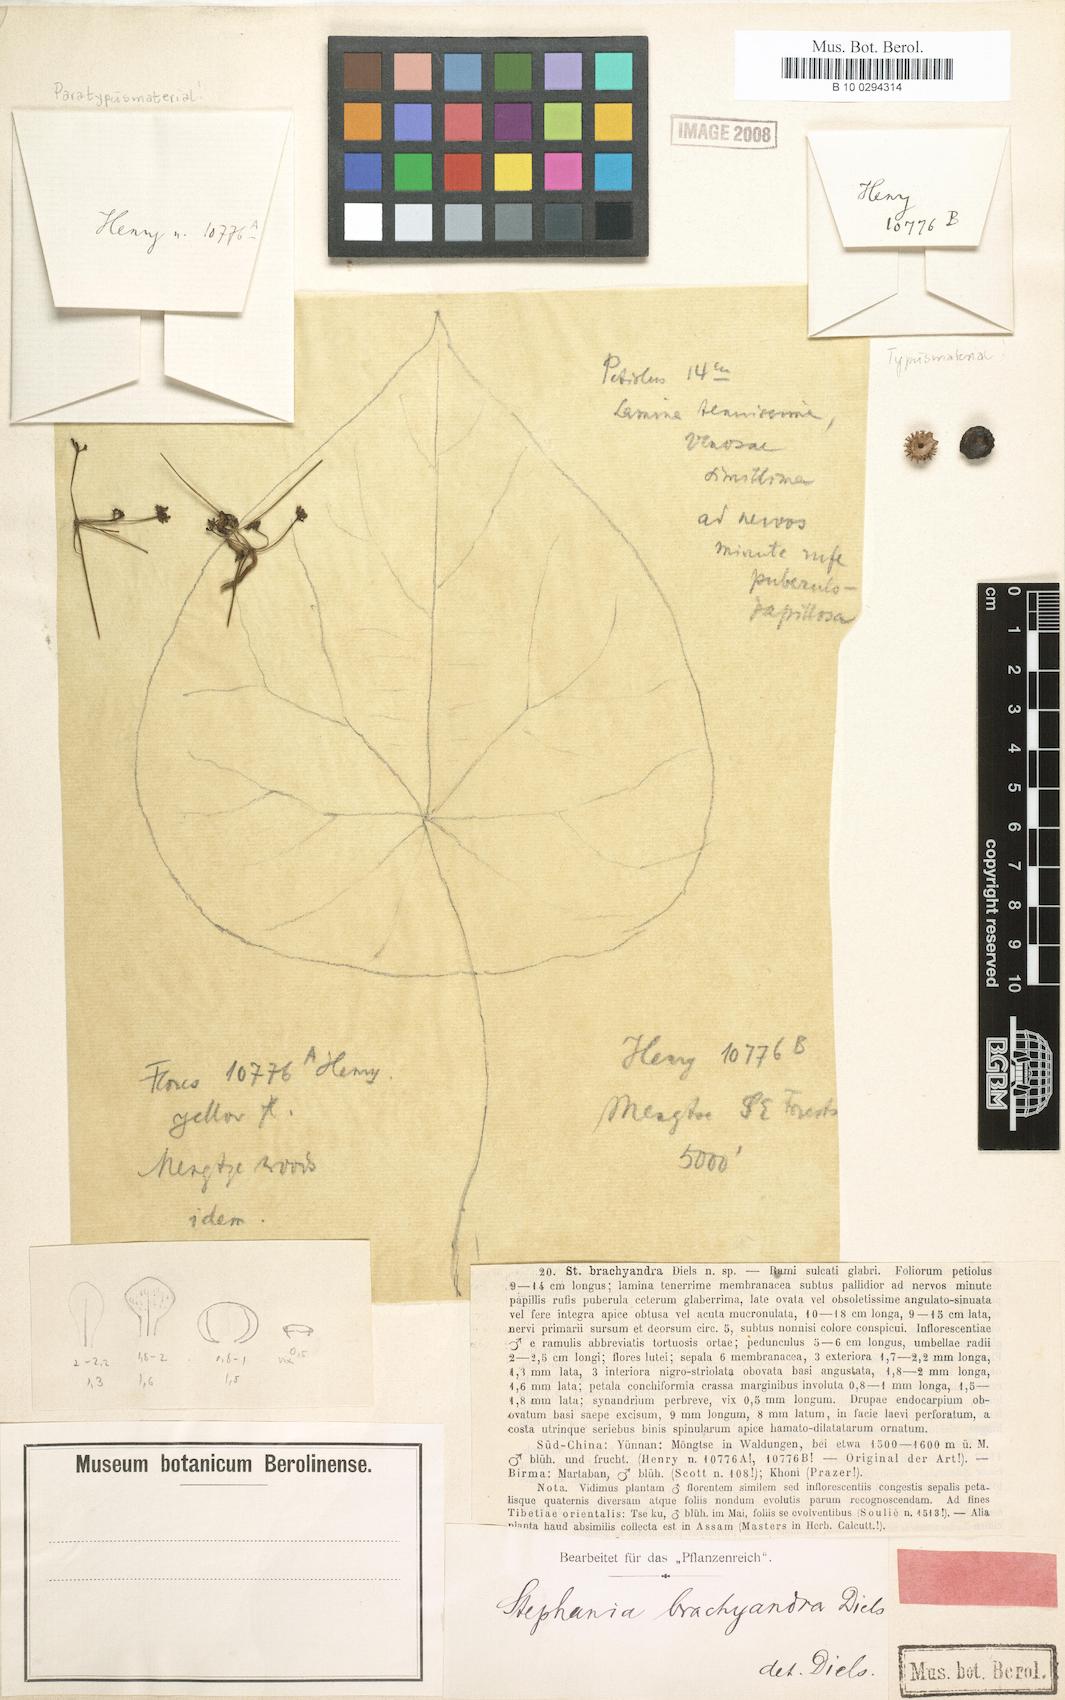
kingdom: Plantae
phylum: Tracheophyta
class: Magnoliopsida
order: Ranunculales
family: Menispermaceae
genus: Stephania
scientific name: Stephania brachyandra
